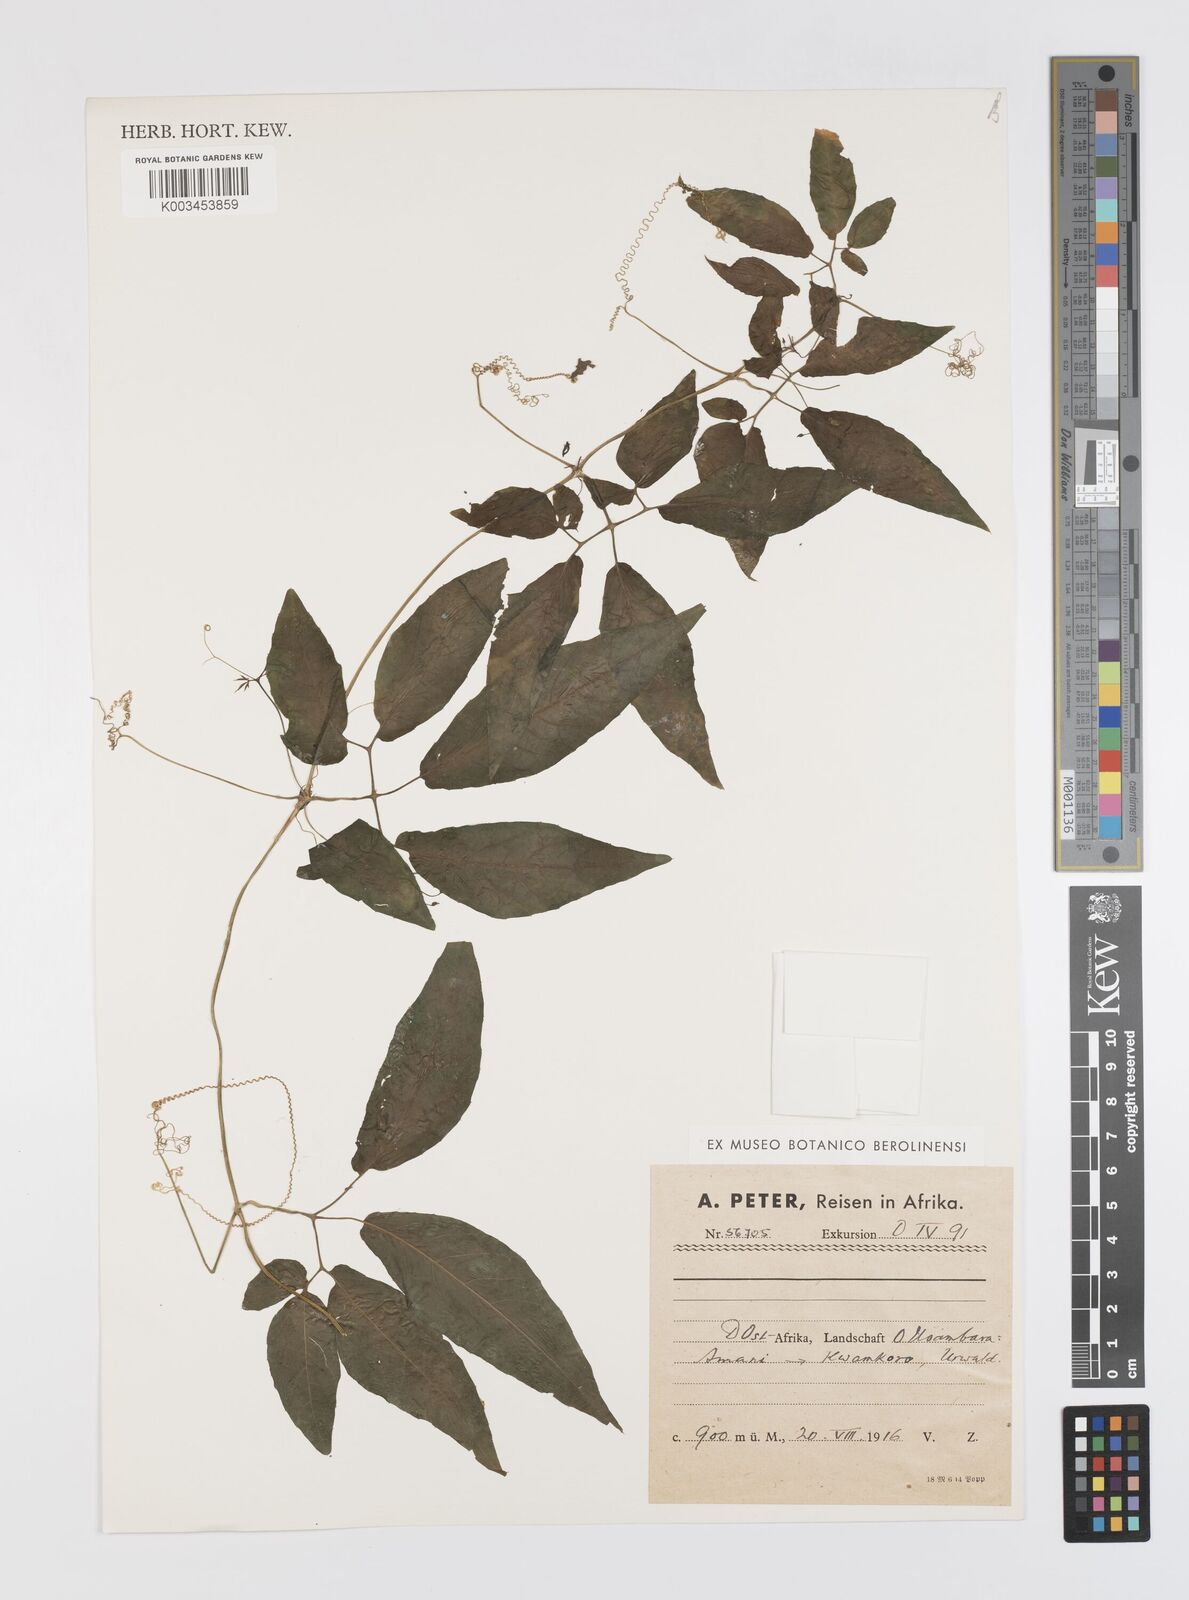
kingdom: Plantae
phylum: Tracheophyta
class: Magnoliopsida
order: Cucurbitales
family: Cucurbitaceae
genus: Momordica
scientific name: Momordica anigosantha
